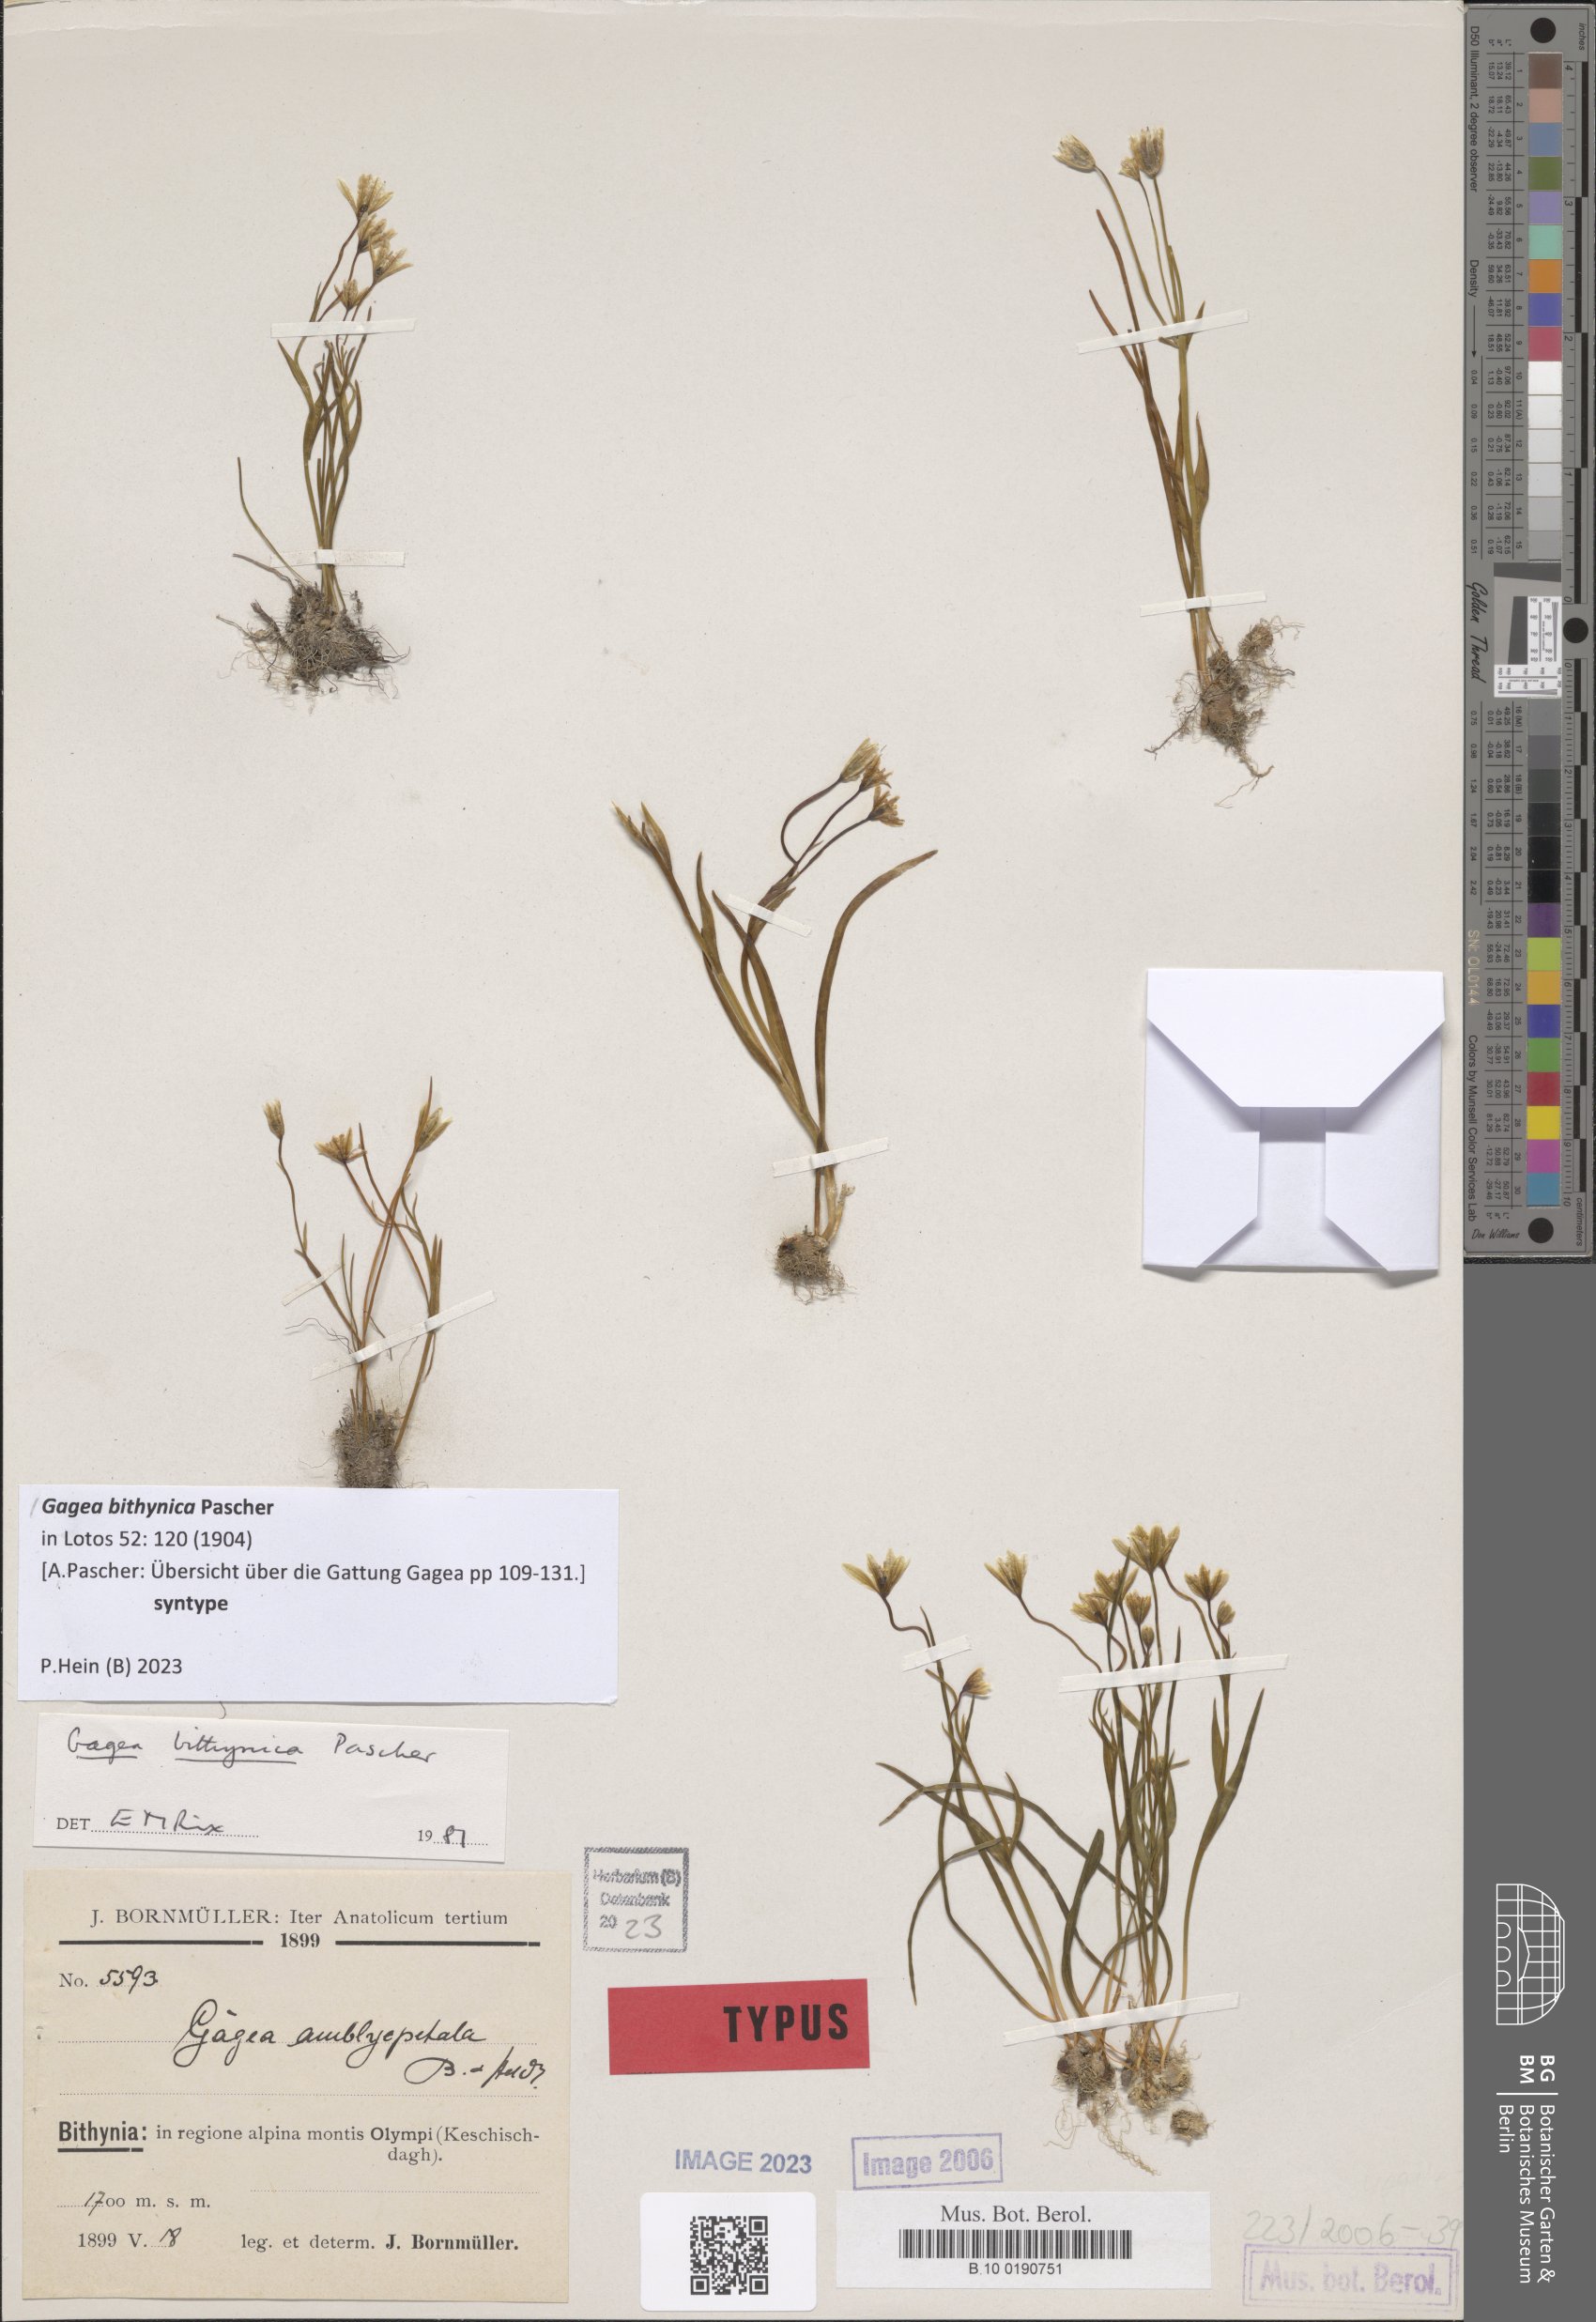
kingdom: Plantae
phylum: Tracheophyta
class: Liliopsida
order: Liliales
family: Liliaceae
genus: Gagea
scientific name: Gagea bithynica
